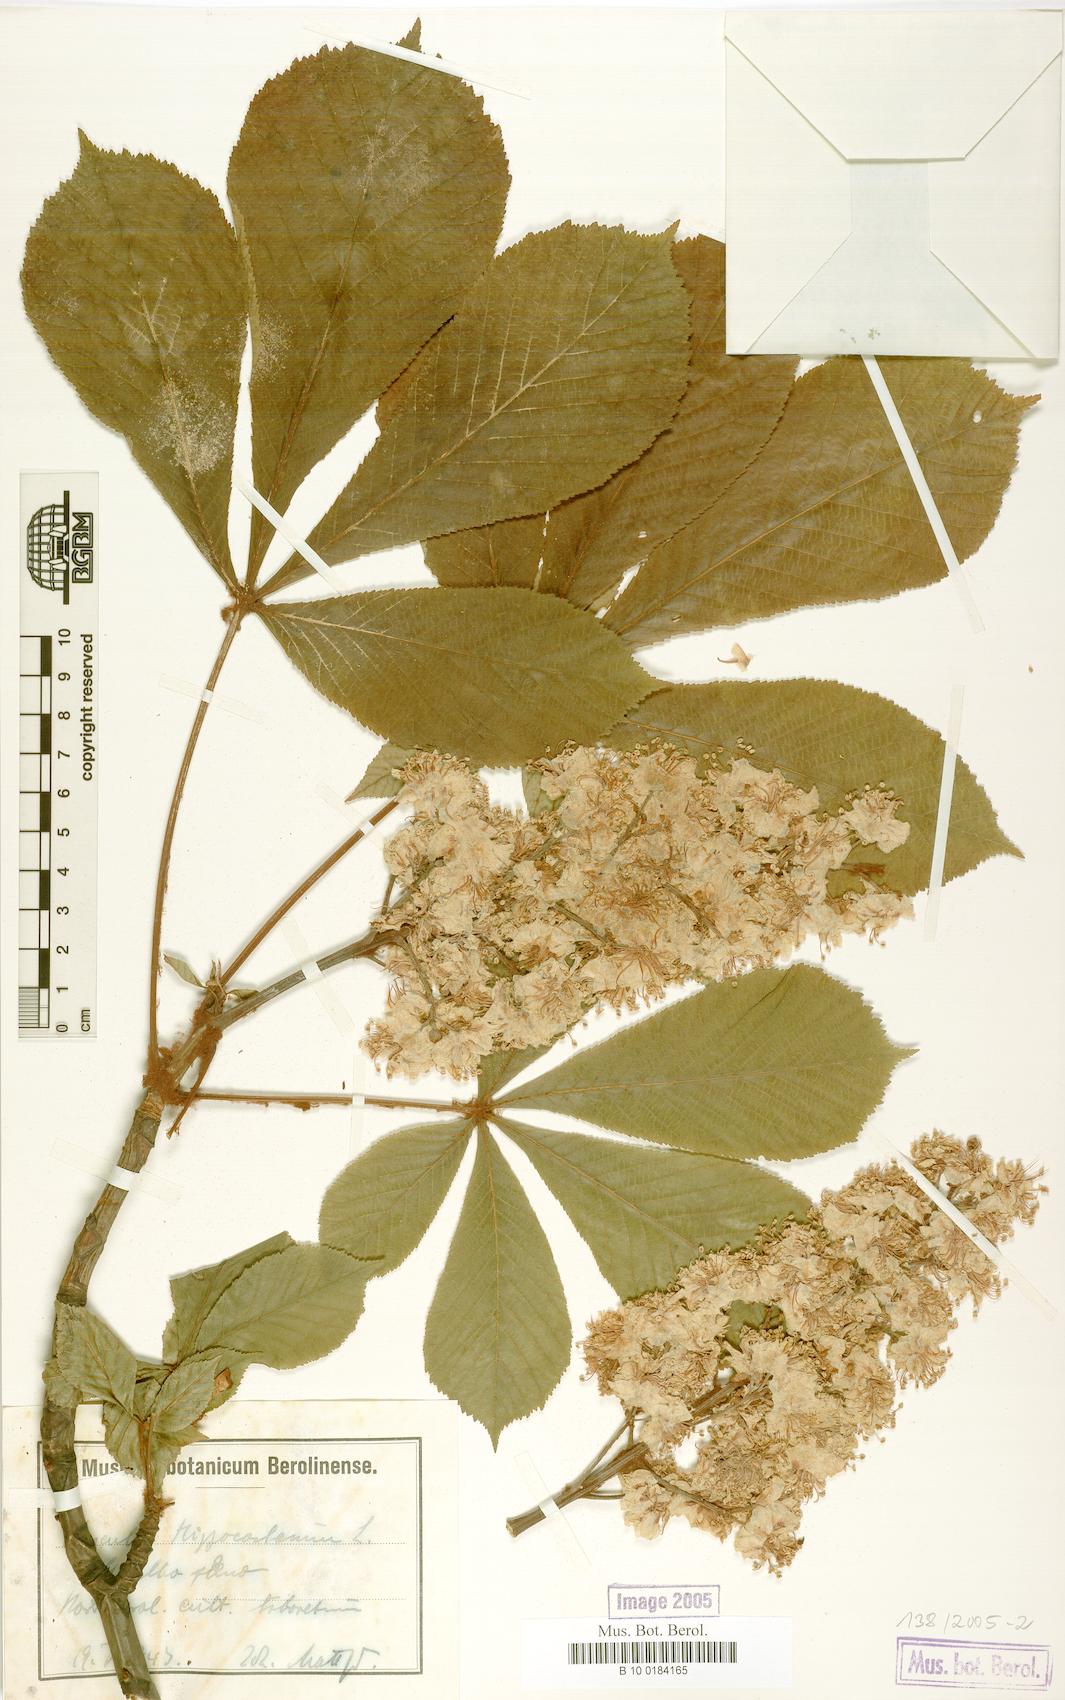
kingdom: Plantae
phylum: Tracheophyta
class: Magnoliopsida
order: Sapindales
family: Sapindaceae
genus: Aesculus
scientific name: Aesculus hippocastanum
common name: Horse-chestnut
